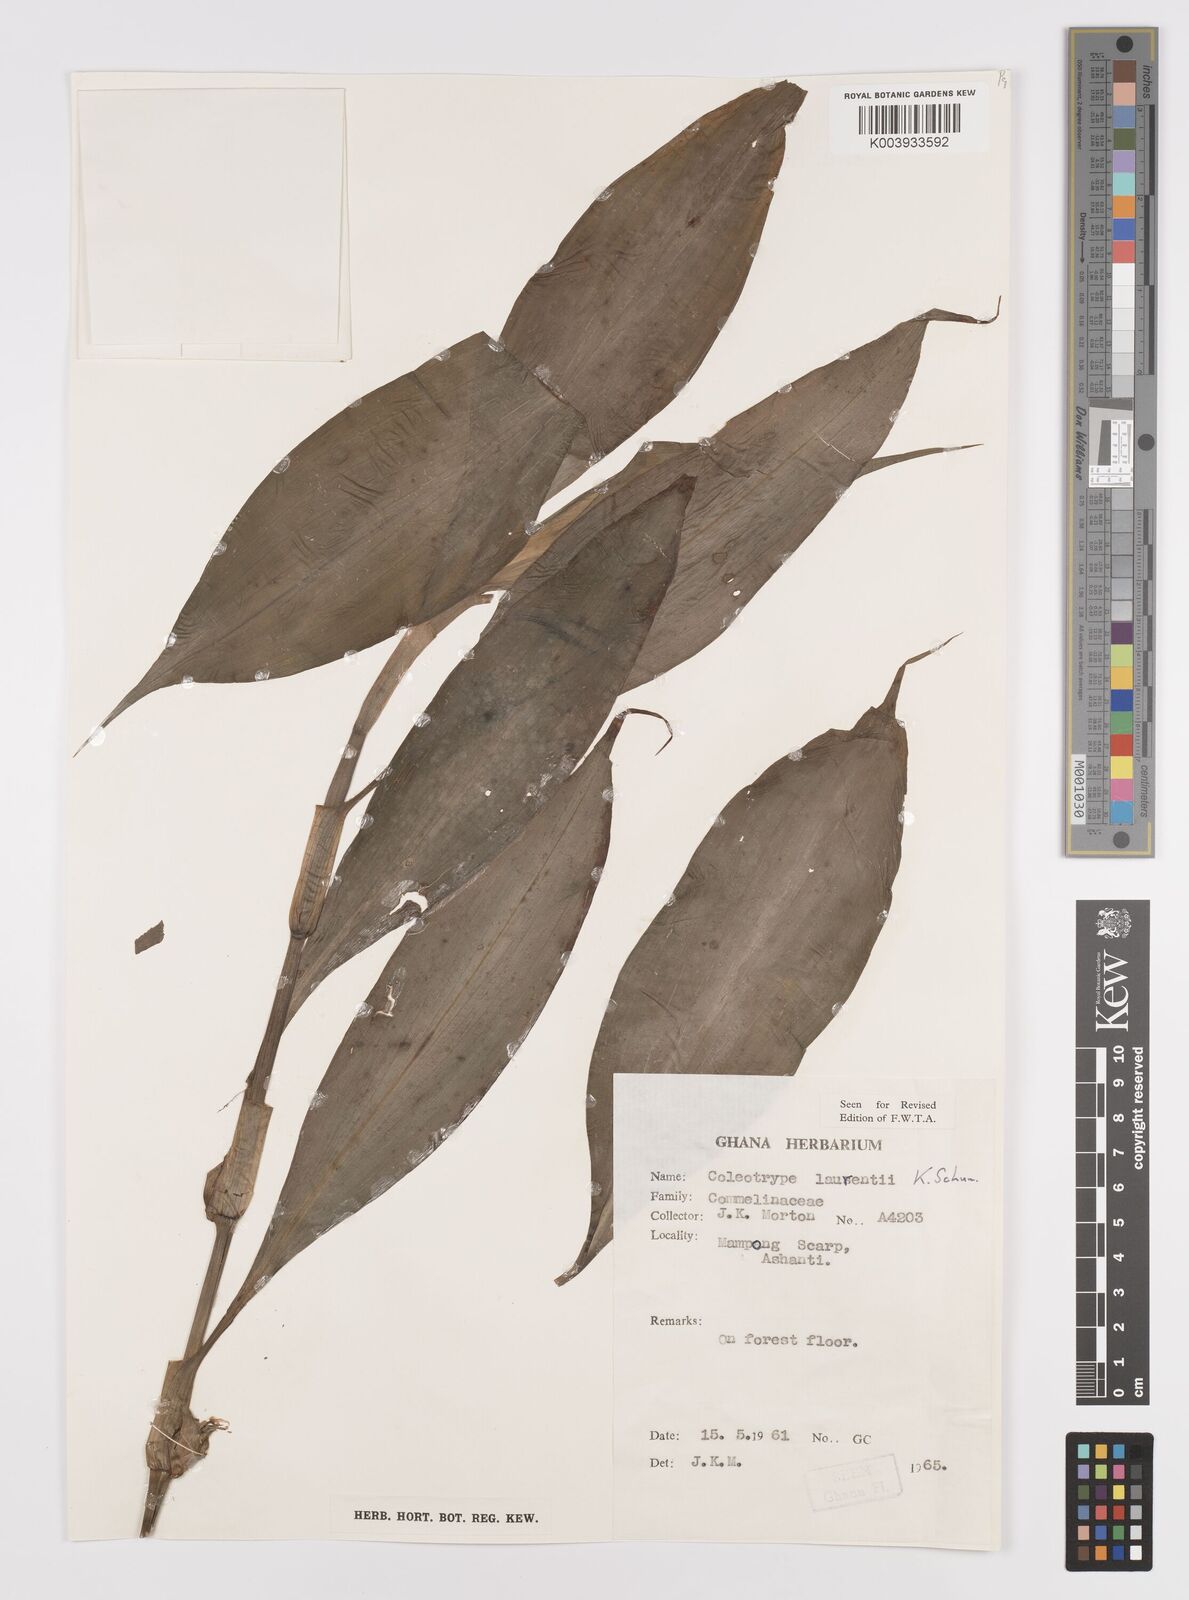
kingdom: Plantae
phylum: Tracheophyta
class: Liliopsida
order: Commelinales
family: Commelinaceae
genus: Coleotrype
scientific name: Coleotrype laurentii
